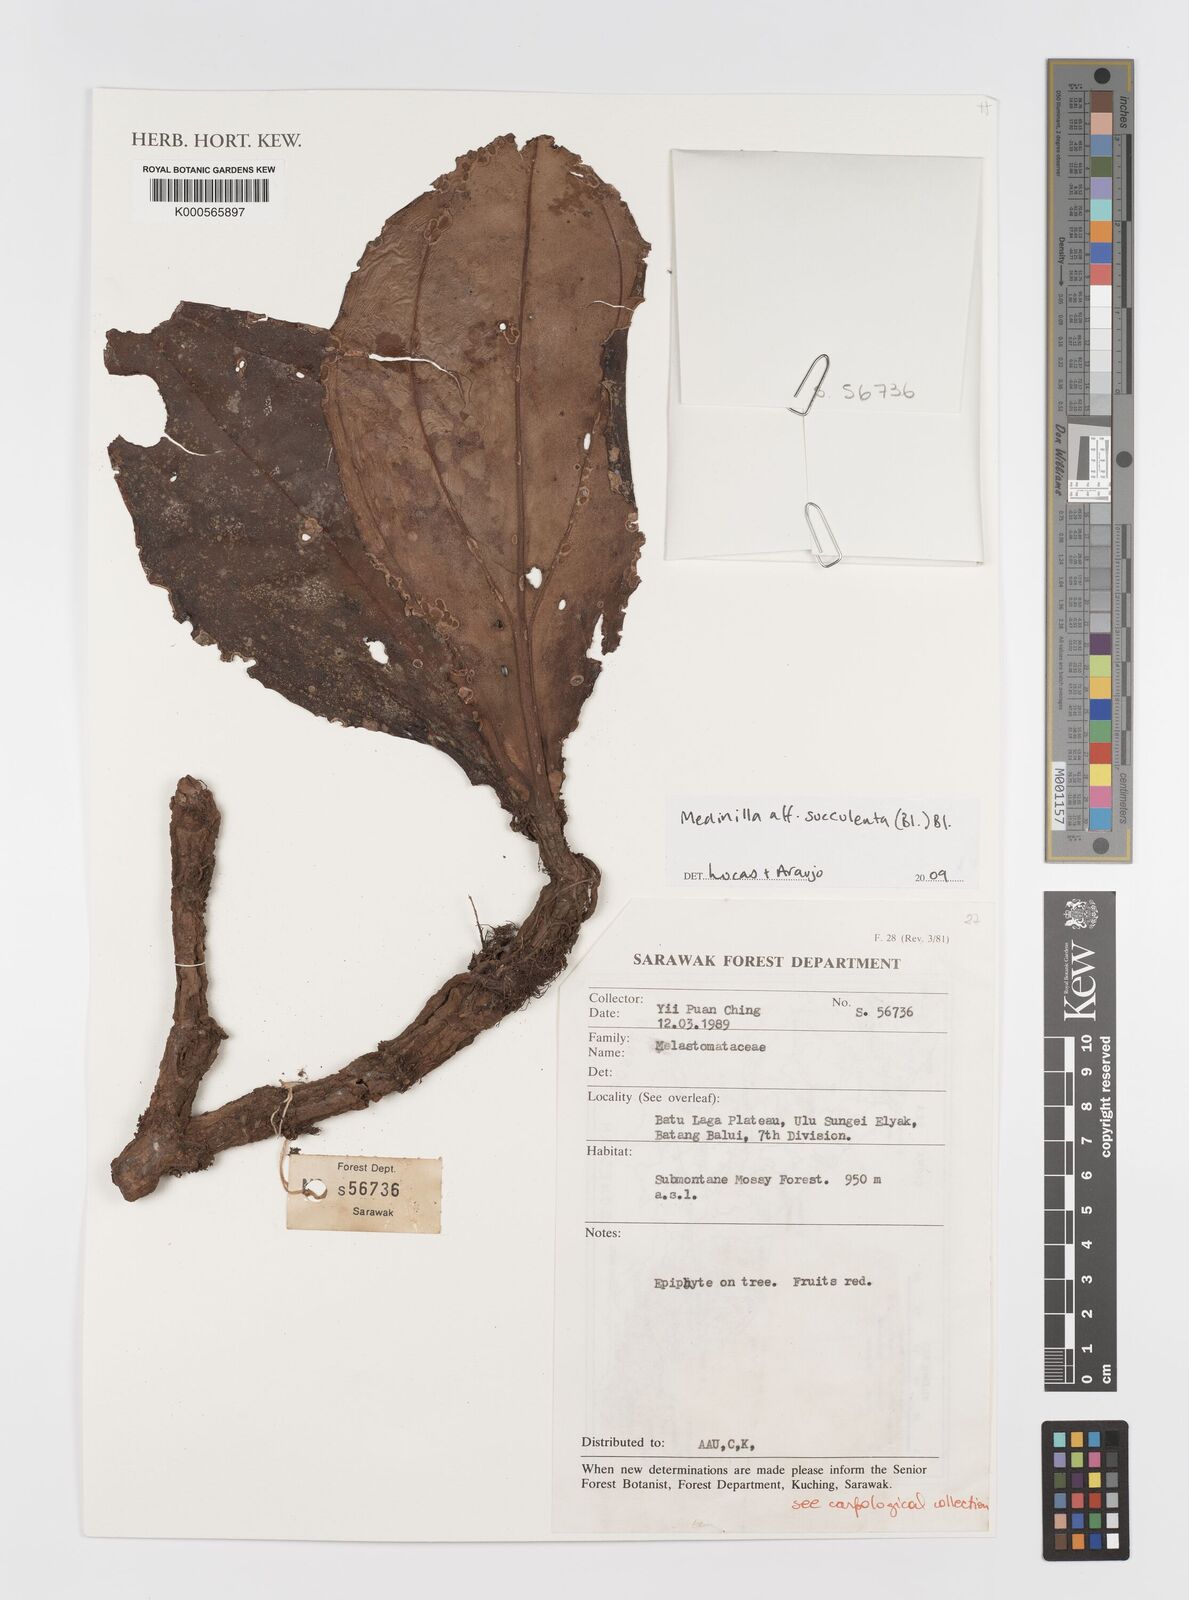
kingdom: Plantae
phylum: Tracheophyta
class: Magnoliopsida
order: Myrtales
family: Melastomataceae
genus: Medinilla
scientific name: Medinilla
